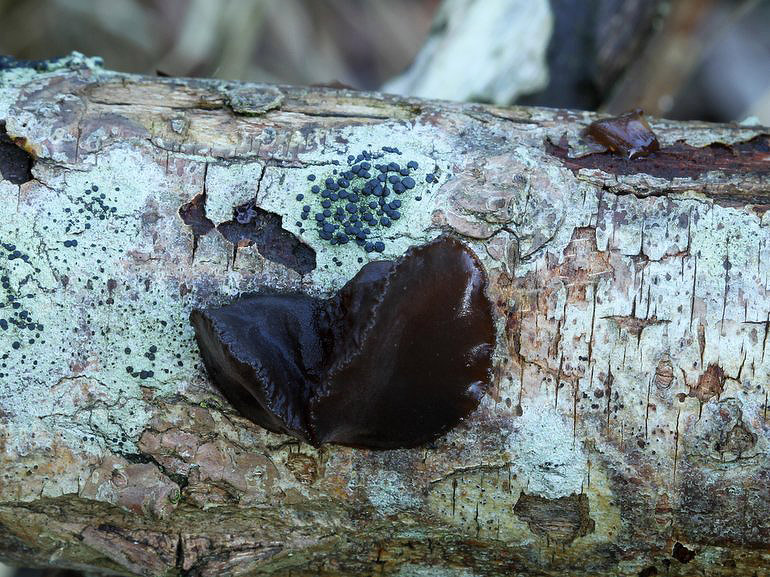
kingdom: Fungi
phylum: Basidiomycota
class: Agaricomycetes
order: Auriculariales
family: Auriculariaceae
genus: Exidia
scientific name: Exidia recisa
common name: pile-bævretop
